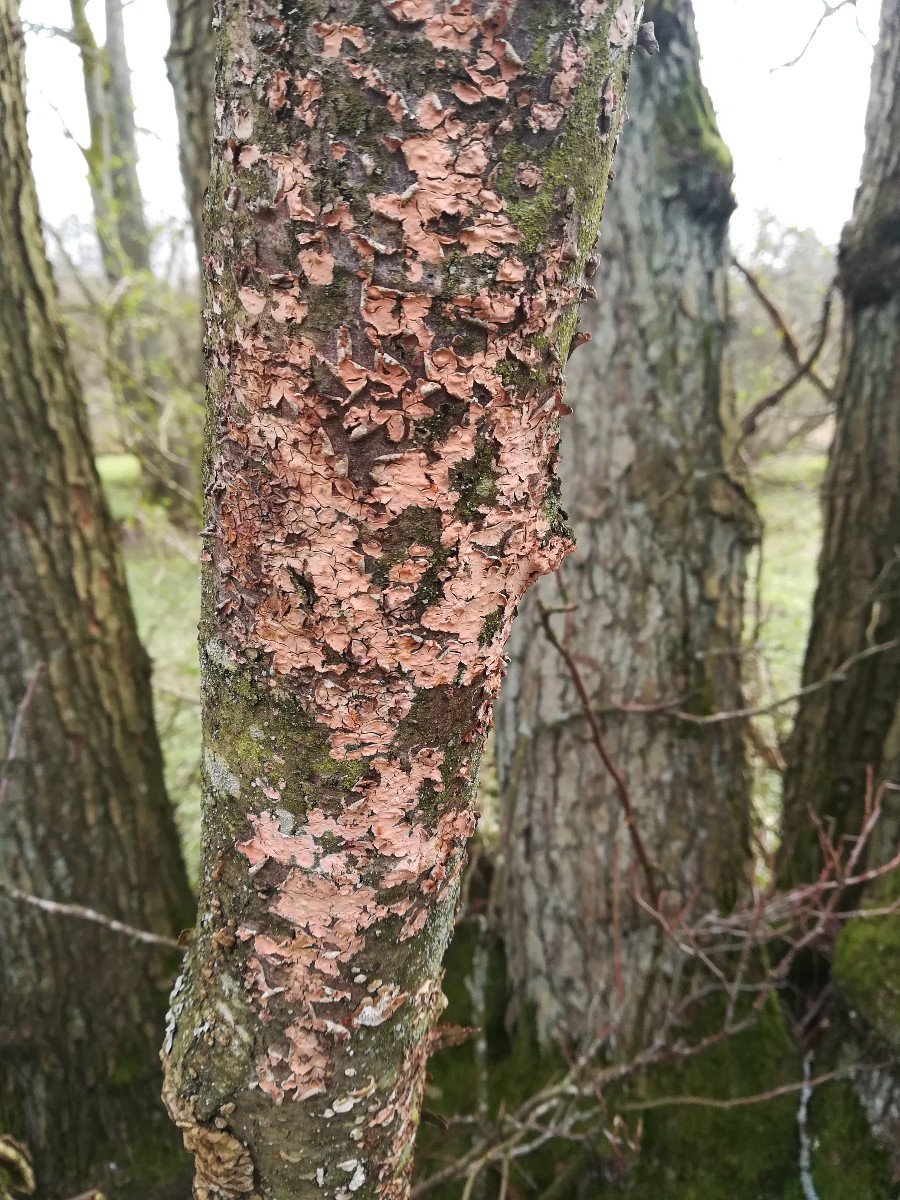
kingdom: Fungi
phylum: Basidiomycota
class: Agaricomycetes
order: Russulales
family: Peniophoraceae
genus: Peniophora
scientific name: Peniophora incarnata
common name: laksefarvet voksskind
